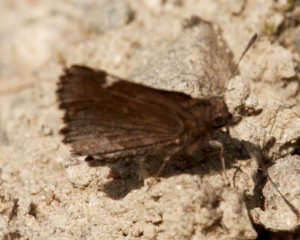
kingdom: Animalia
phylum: Arthropoda
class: Insecta
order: Lepidoptera
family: Hesperiidae
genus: Mastor
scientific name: Mastor vialis
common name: Common Roadside-Skipper
